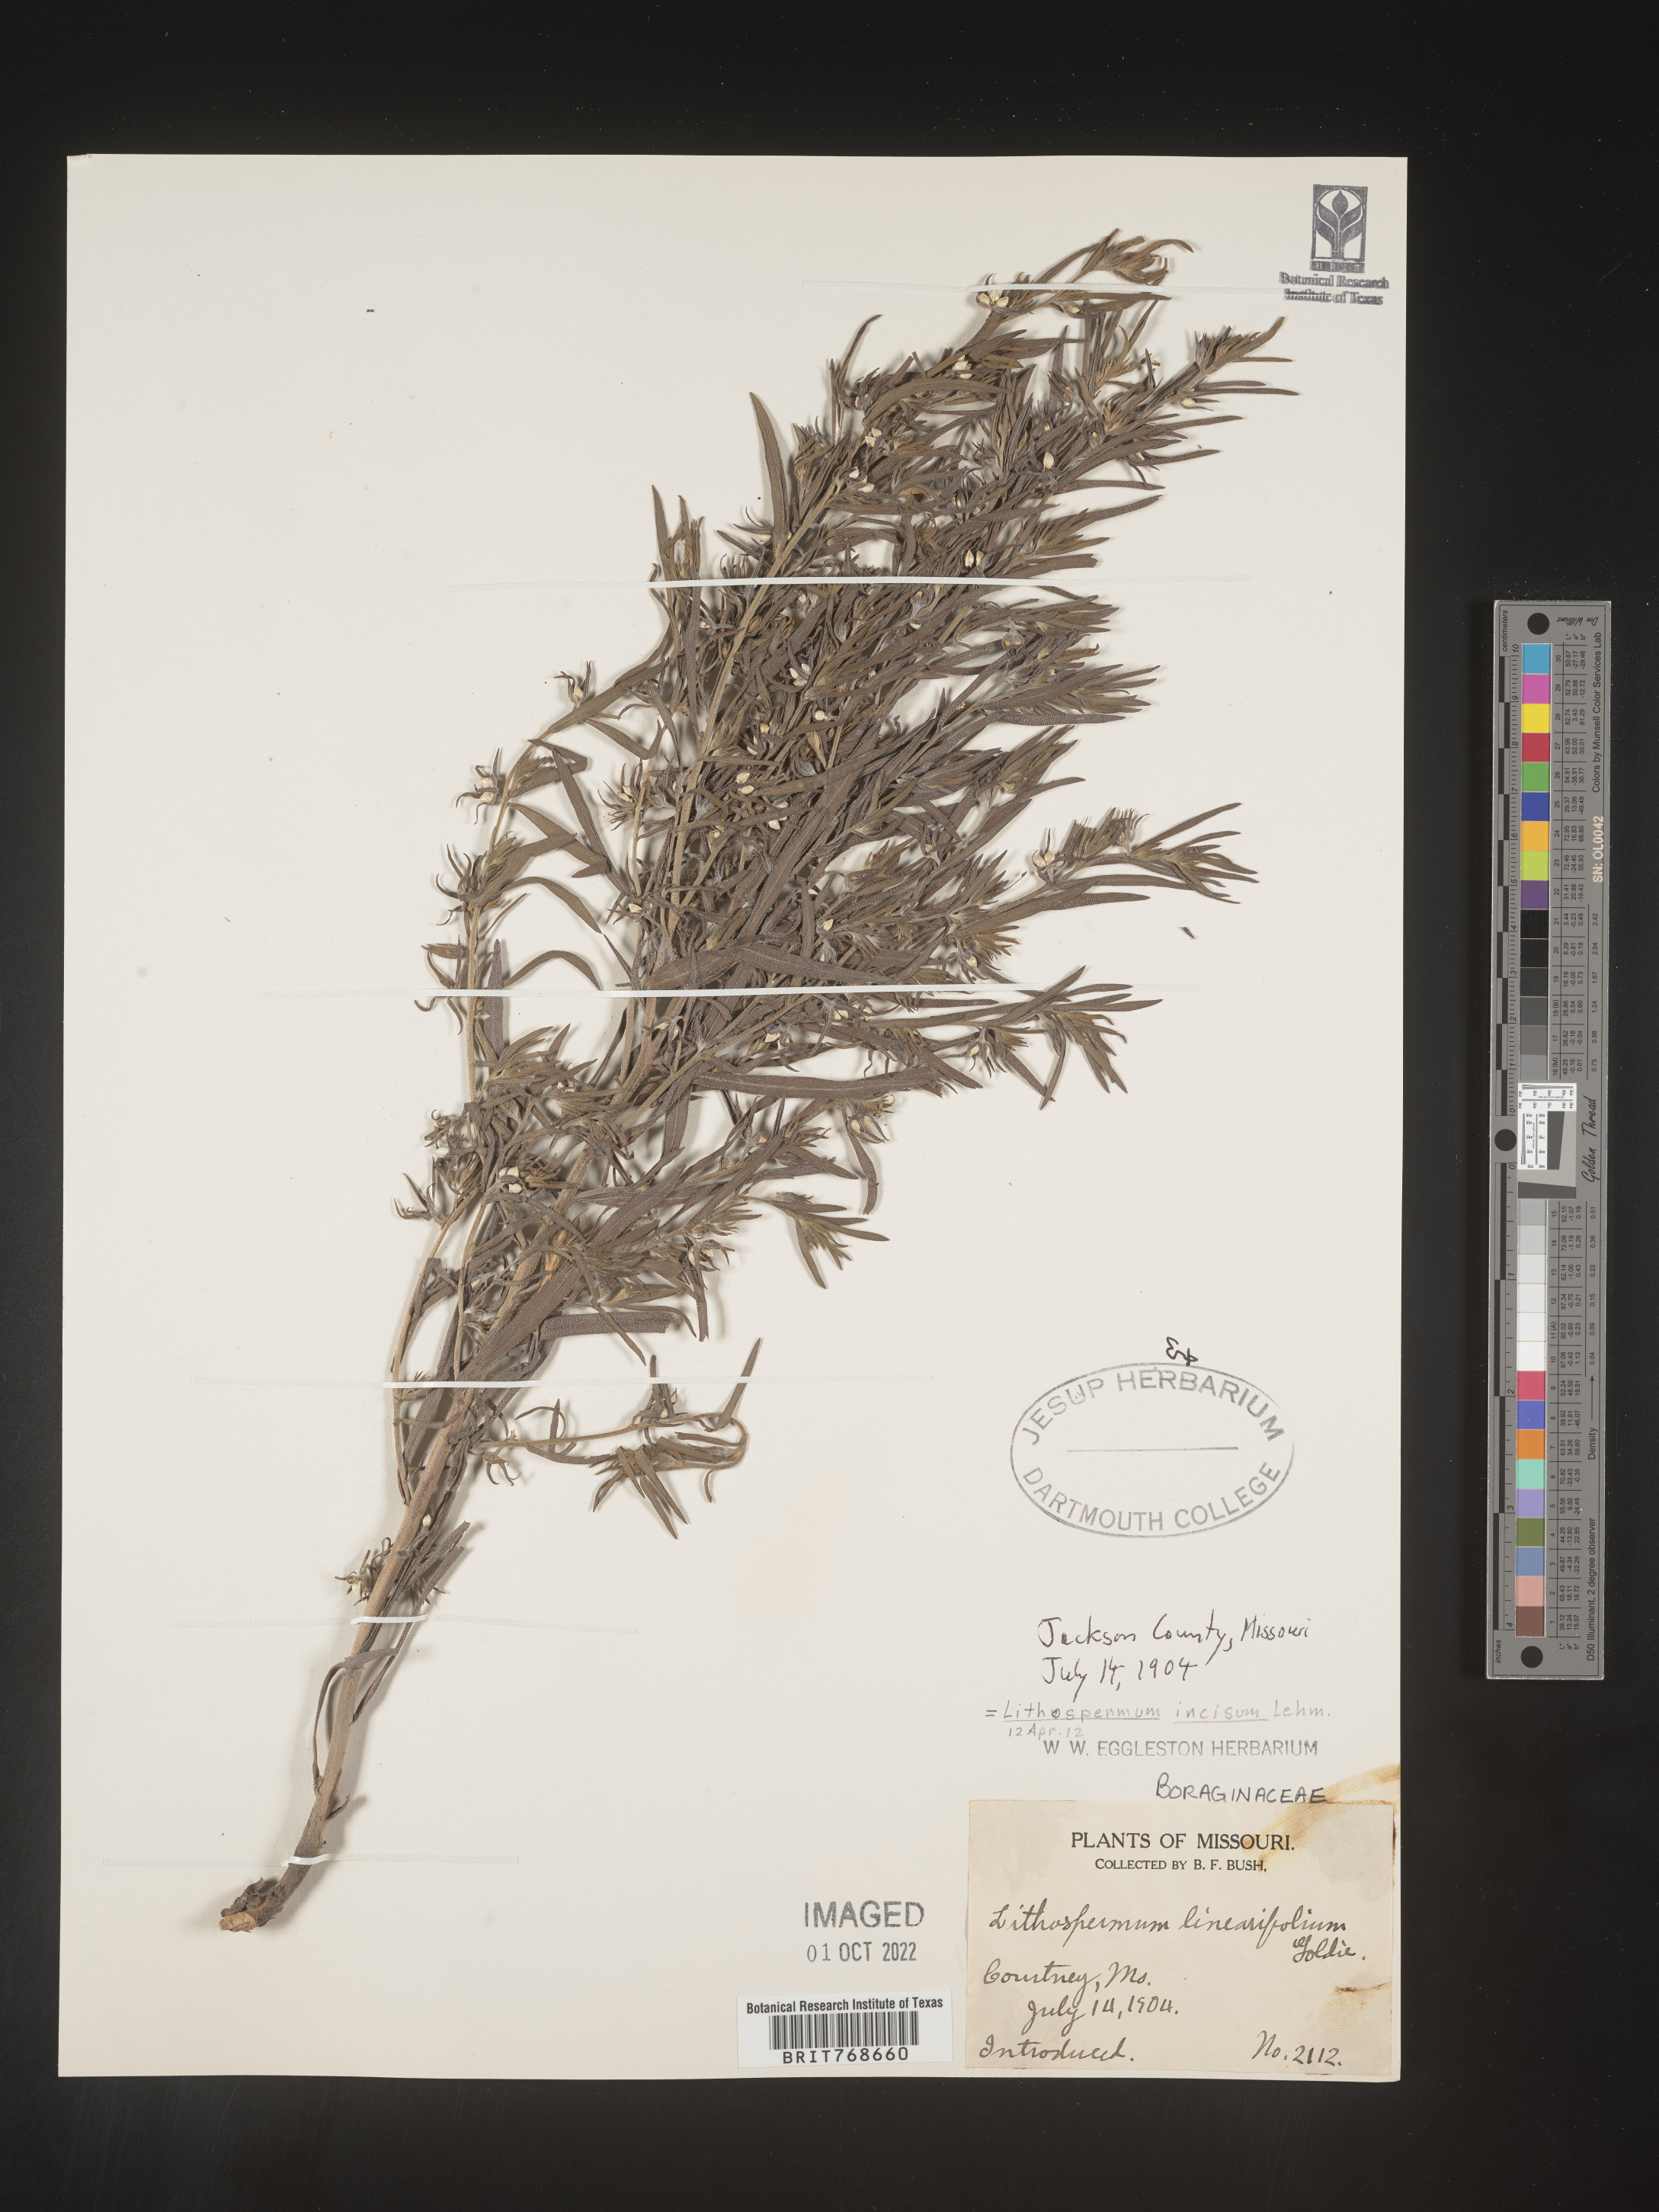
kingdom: Plantae
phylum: Tracheophyta
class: Magnoliopsida
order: Boraginales
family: Boraginaceae
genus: Lithospermum
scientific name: Lithospermum incisum
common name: Fringed gromwell
